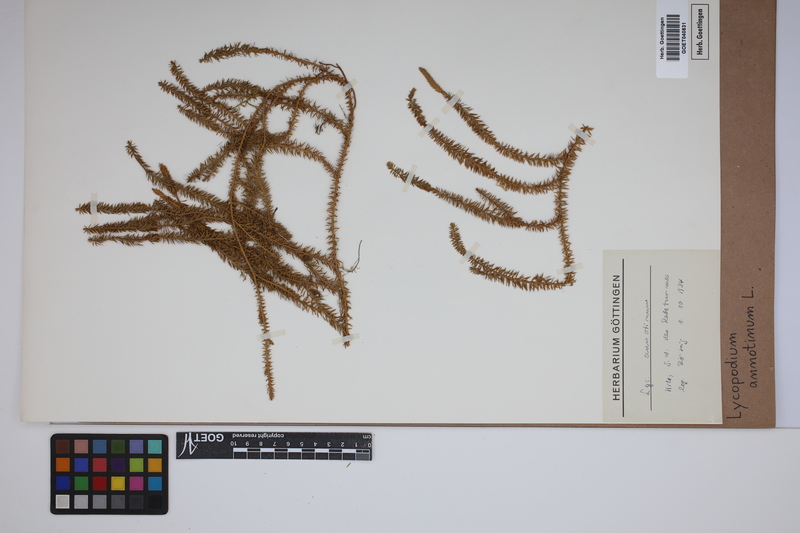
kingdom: Plantae
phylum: Tracheophyta
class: Lycopodiopsida
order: Lycopodiales
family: Lycopodiaceae
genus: Spinulum
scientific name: Spinulum annotinum
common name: Interrupted club-moss
